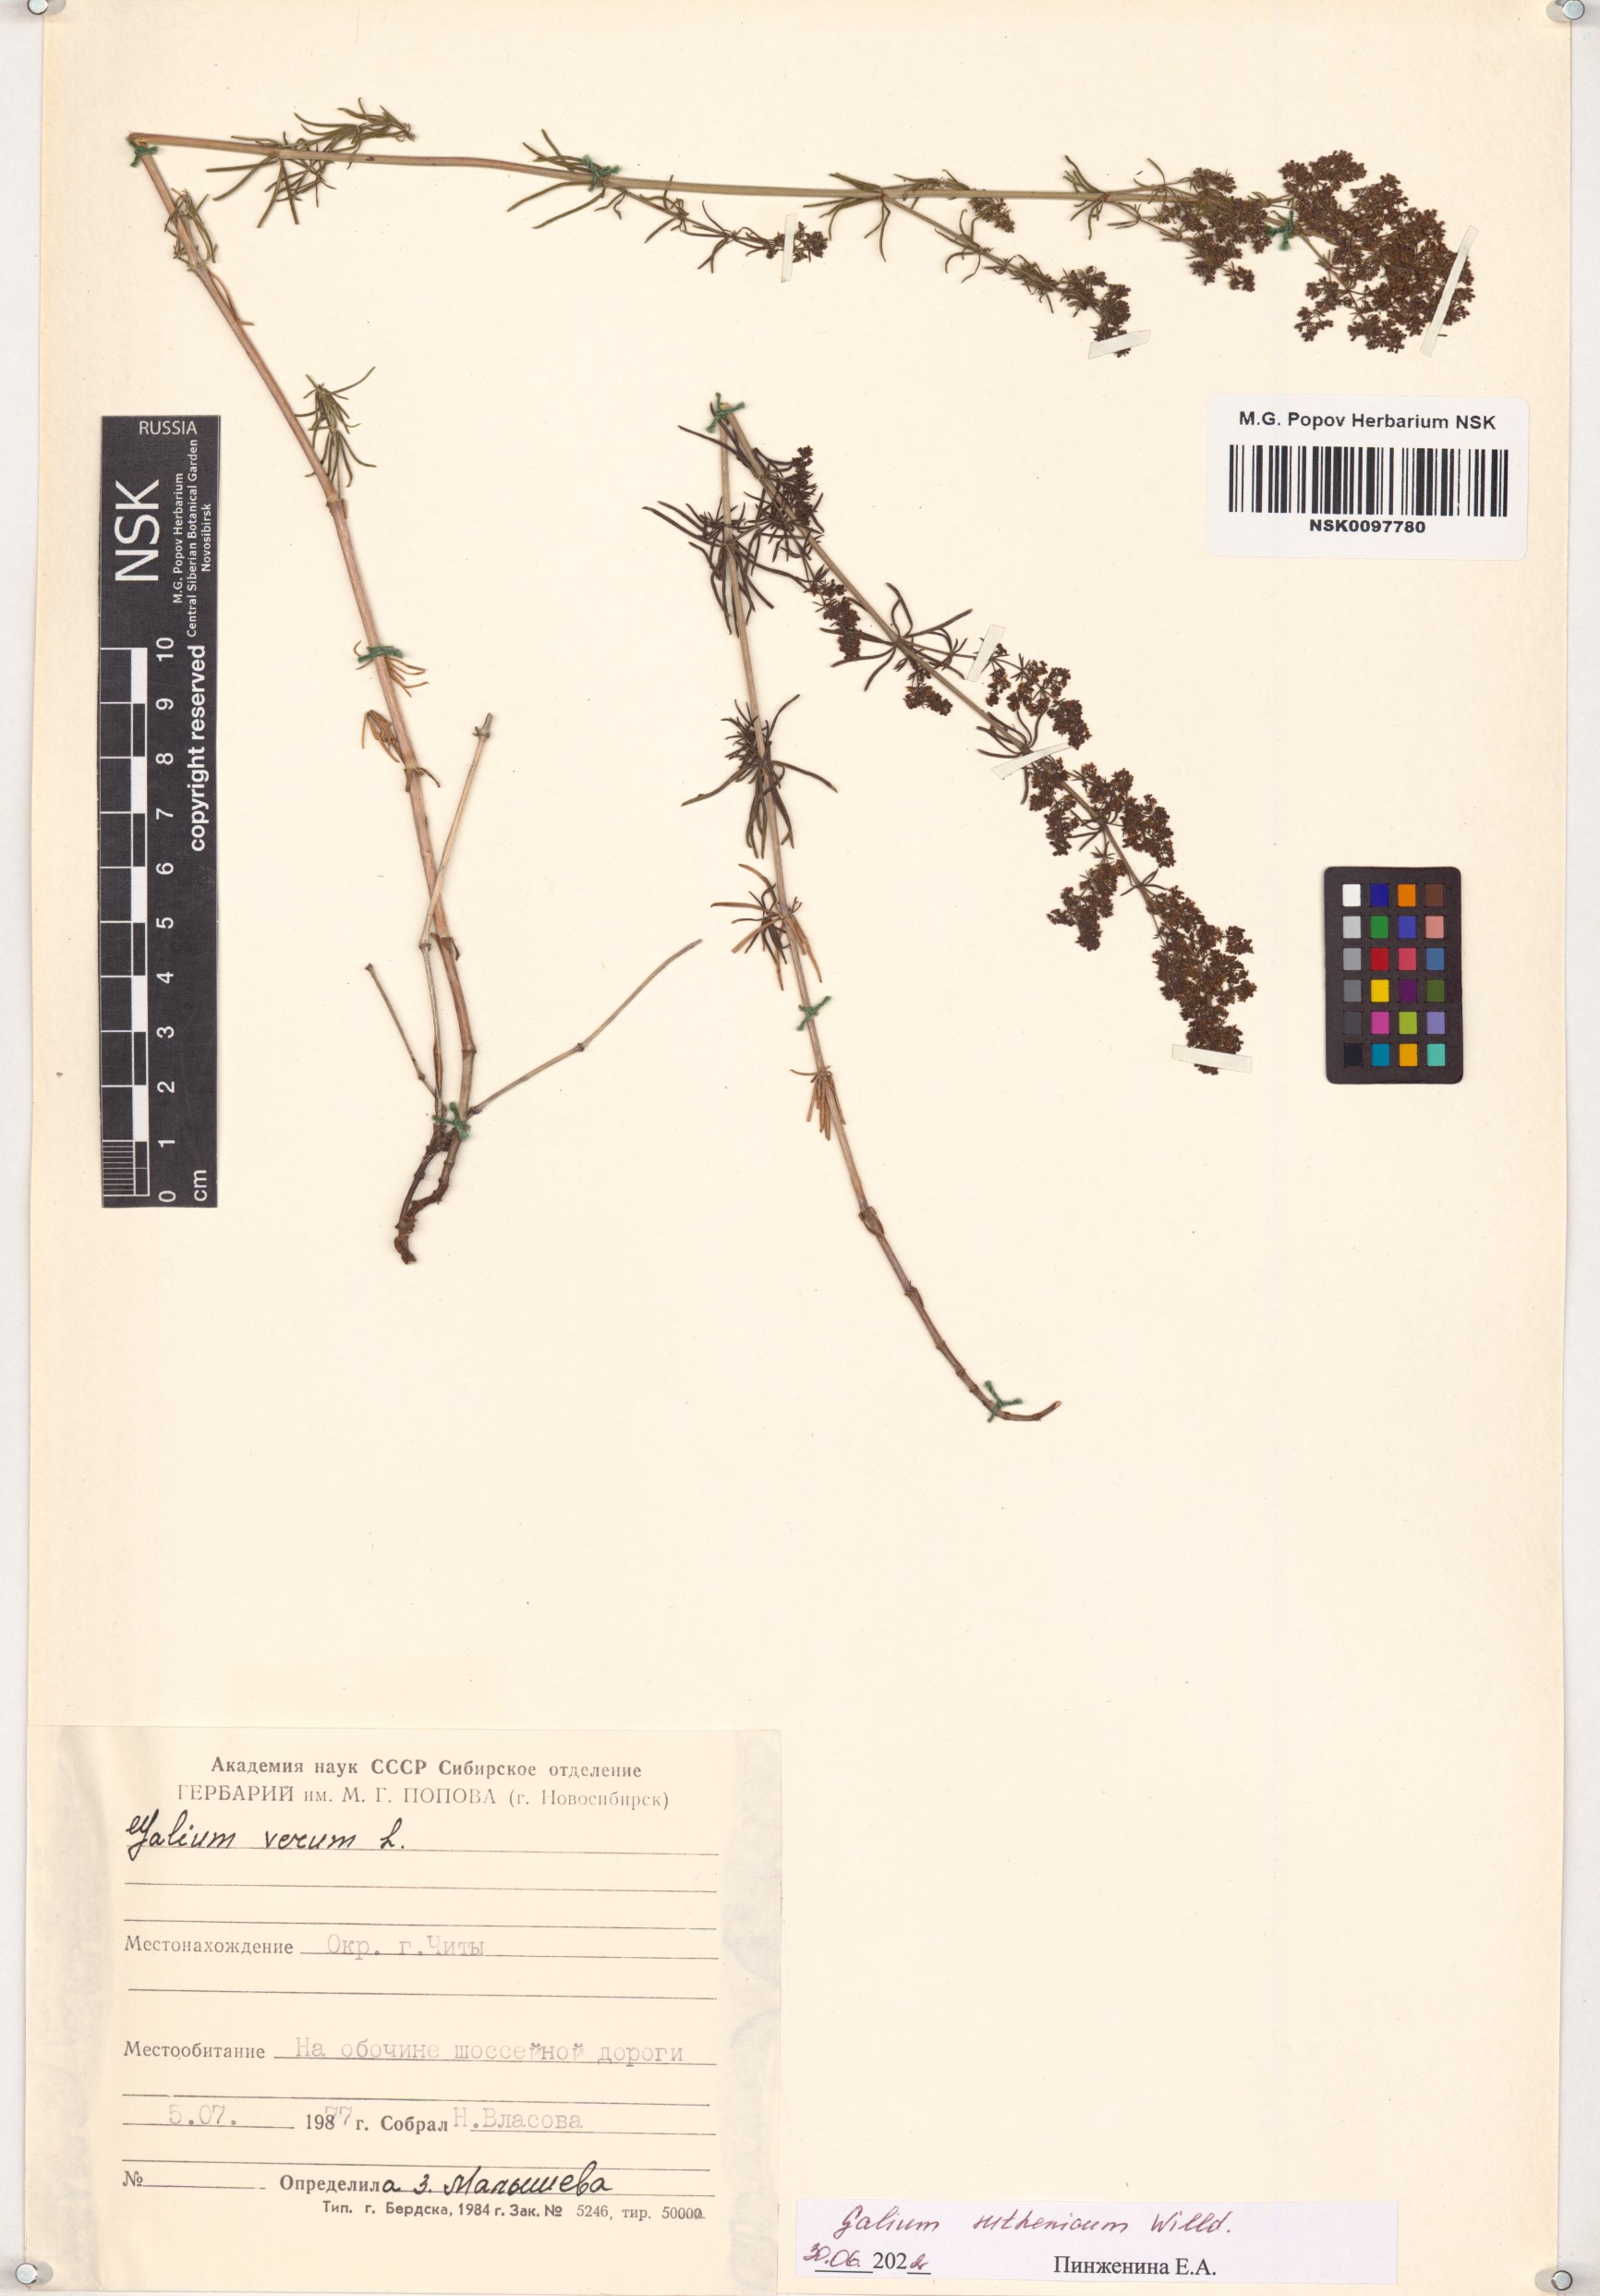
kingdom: Plantae
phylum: Tracheophyta
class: Magnoliopsida
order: Gentianales
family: Rubiaceae
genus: Galium
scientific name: Galium verum
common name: Lady's bedstraw
